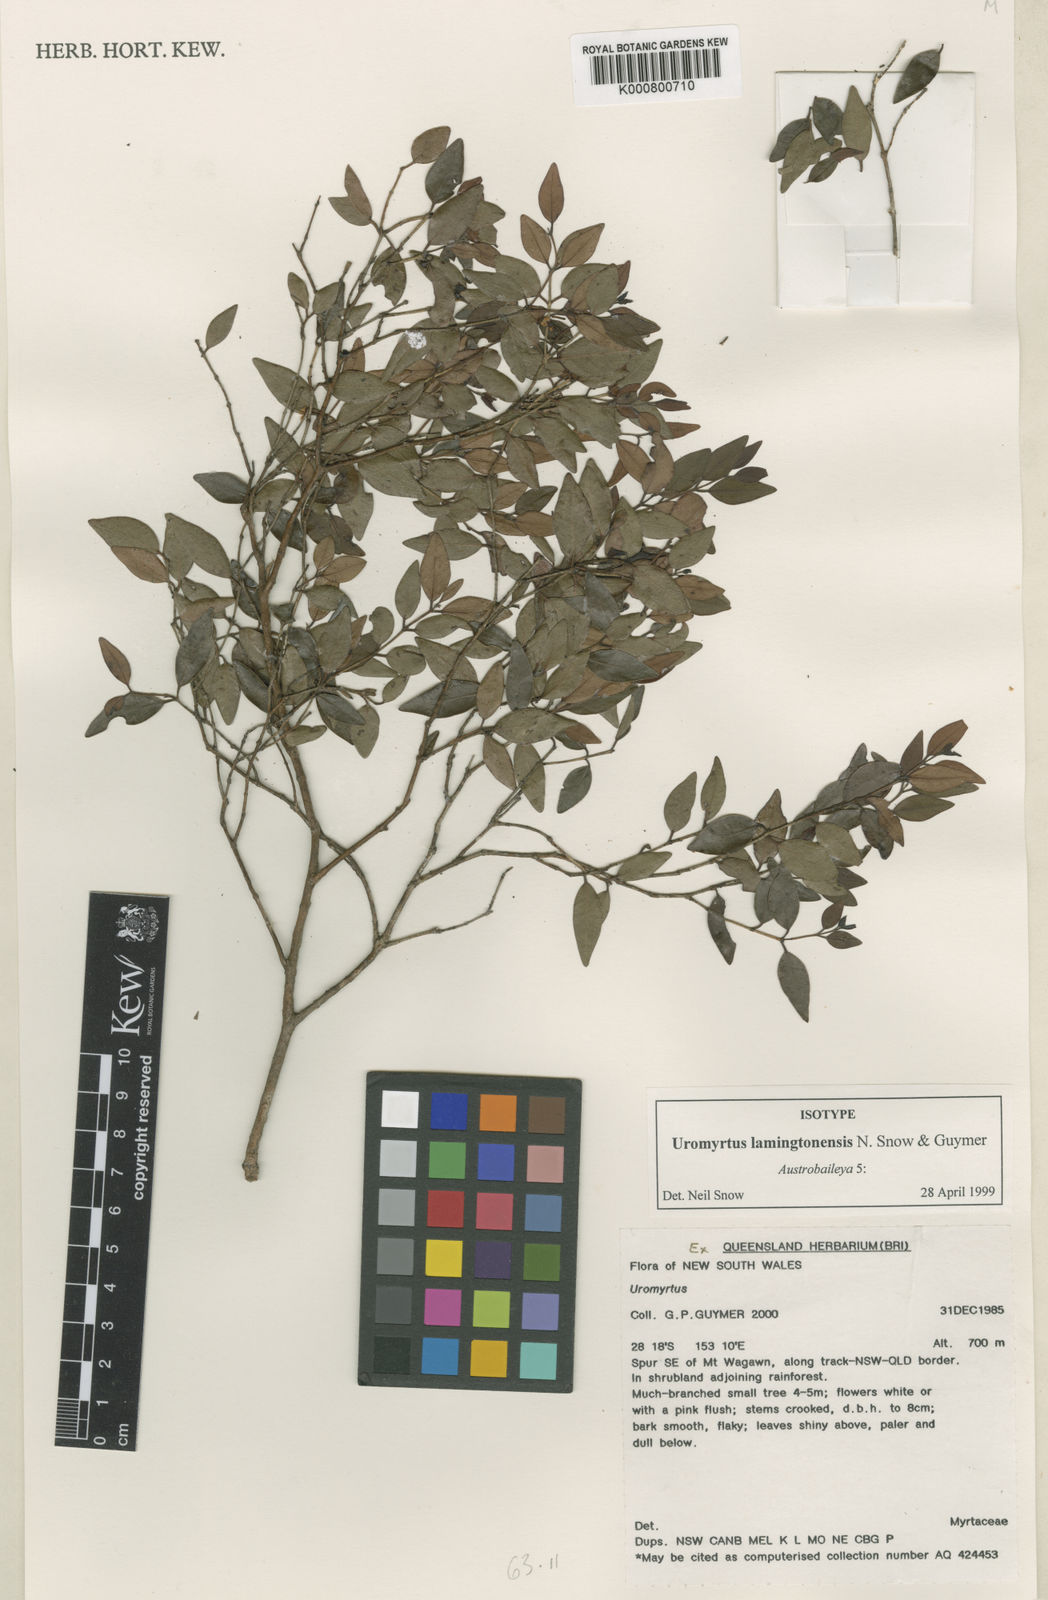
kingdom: Plantae
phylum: Tracheophyta
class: Magnoliopsida
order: Myrtales
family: Myrtaceae
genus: Uromyrtus
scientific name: Uromyrtus lamingtonensis
